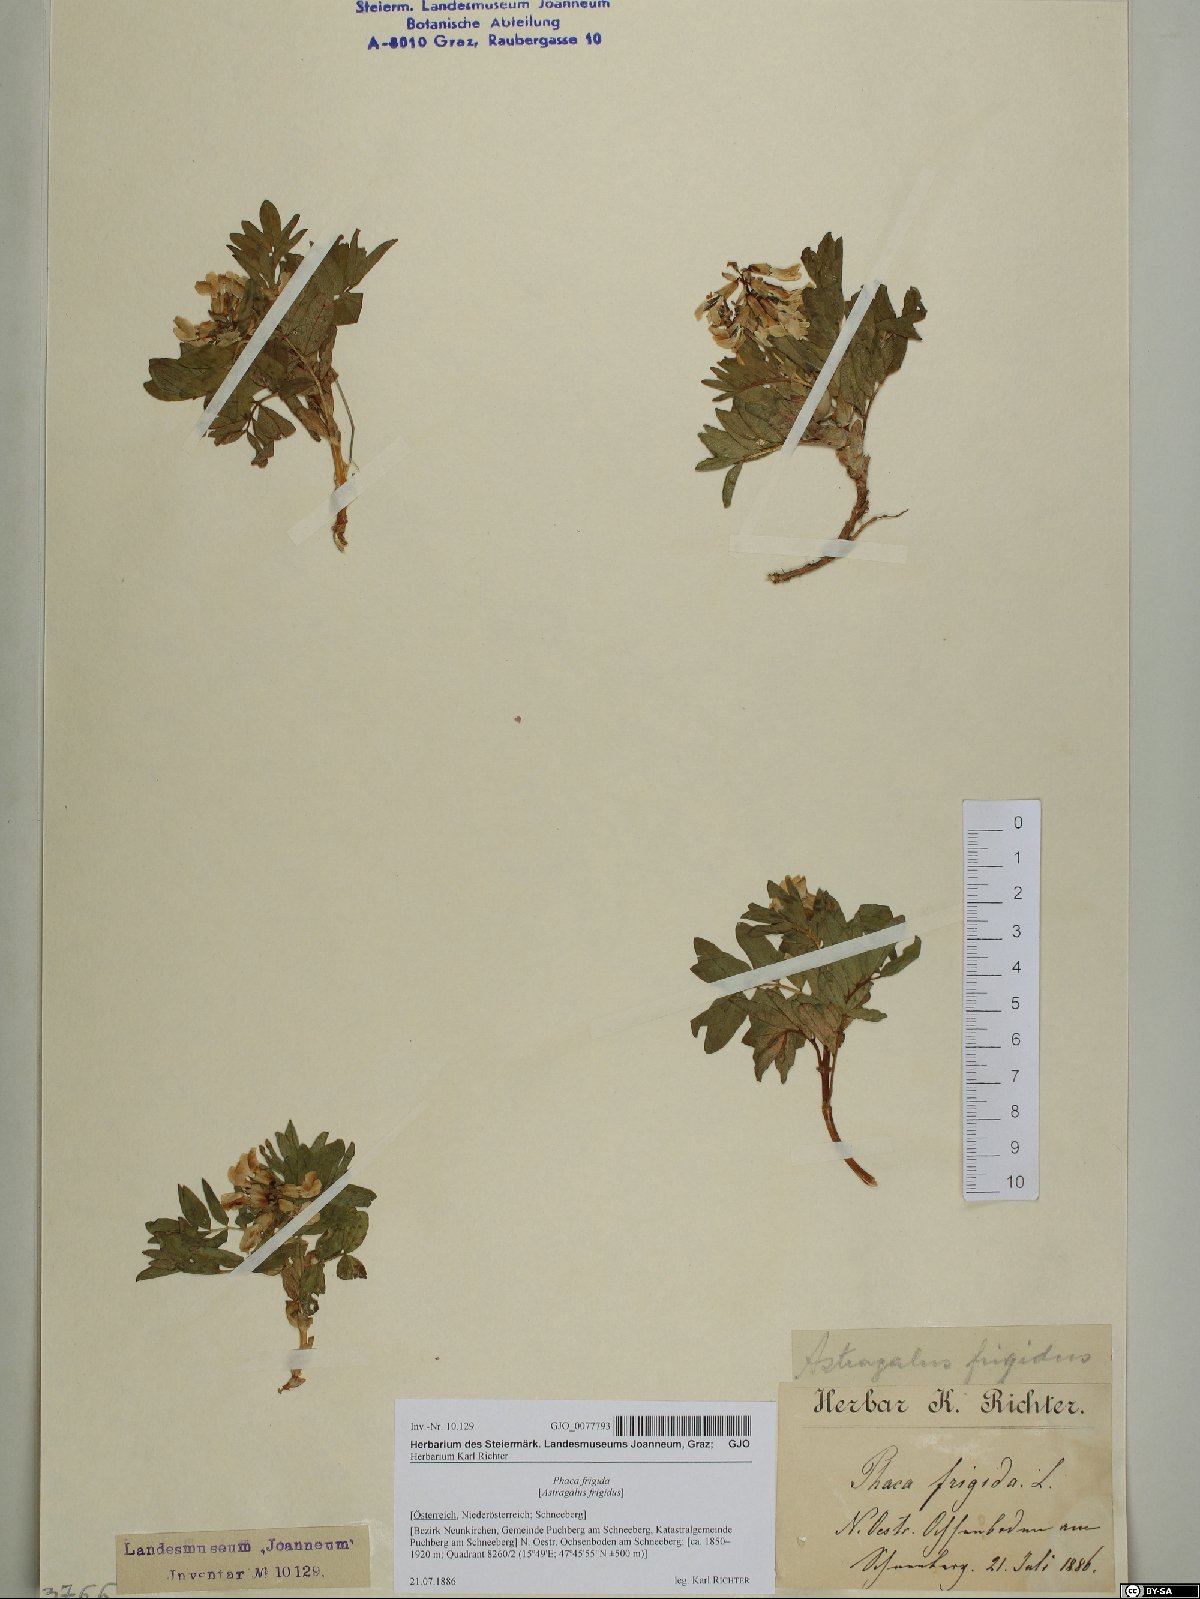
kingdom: Plantae
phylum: Tracheophyta
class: Magnoliopsida
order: Fabales
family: Fabaceae
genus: Astragalus
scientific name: Astragalus frigidus
